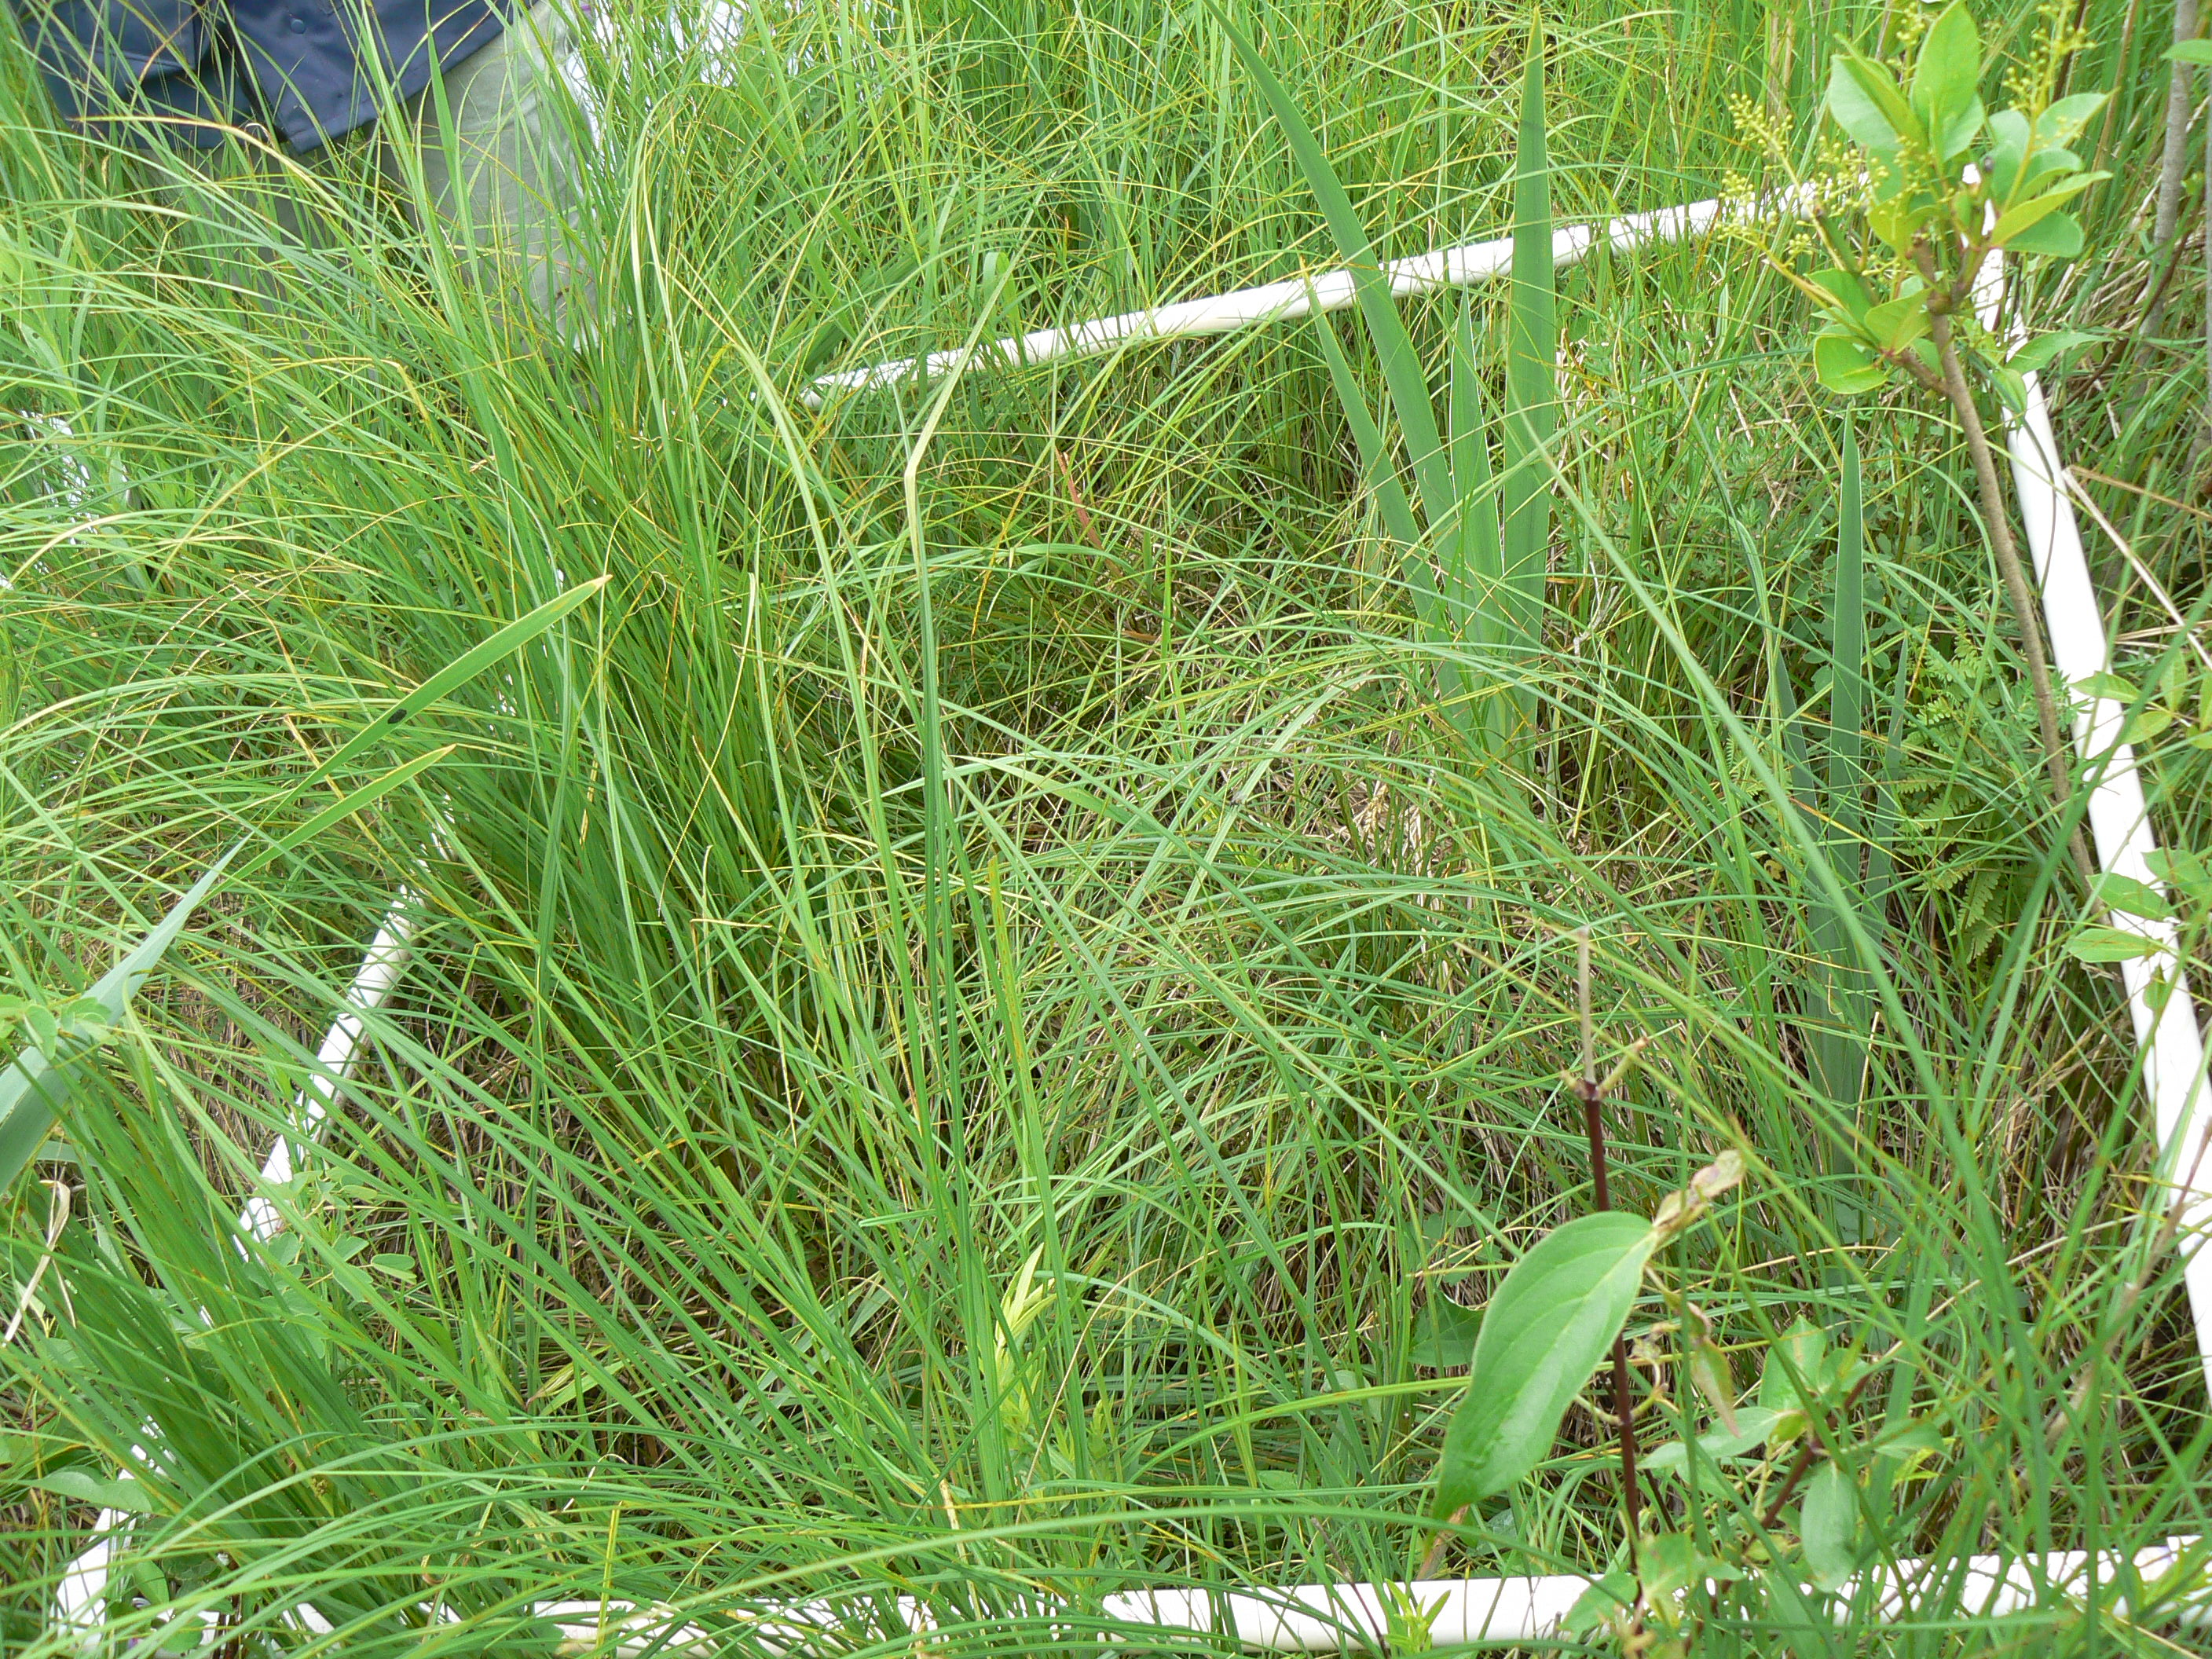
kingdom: Plantae
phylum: Tracheophyta
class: Polypodiopsida
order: Polypodiales
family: Thelypteridaceae
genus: Thelypteris
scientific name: Thelypteris palustris
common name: Marsh fern
